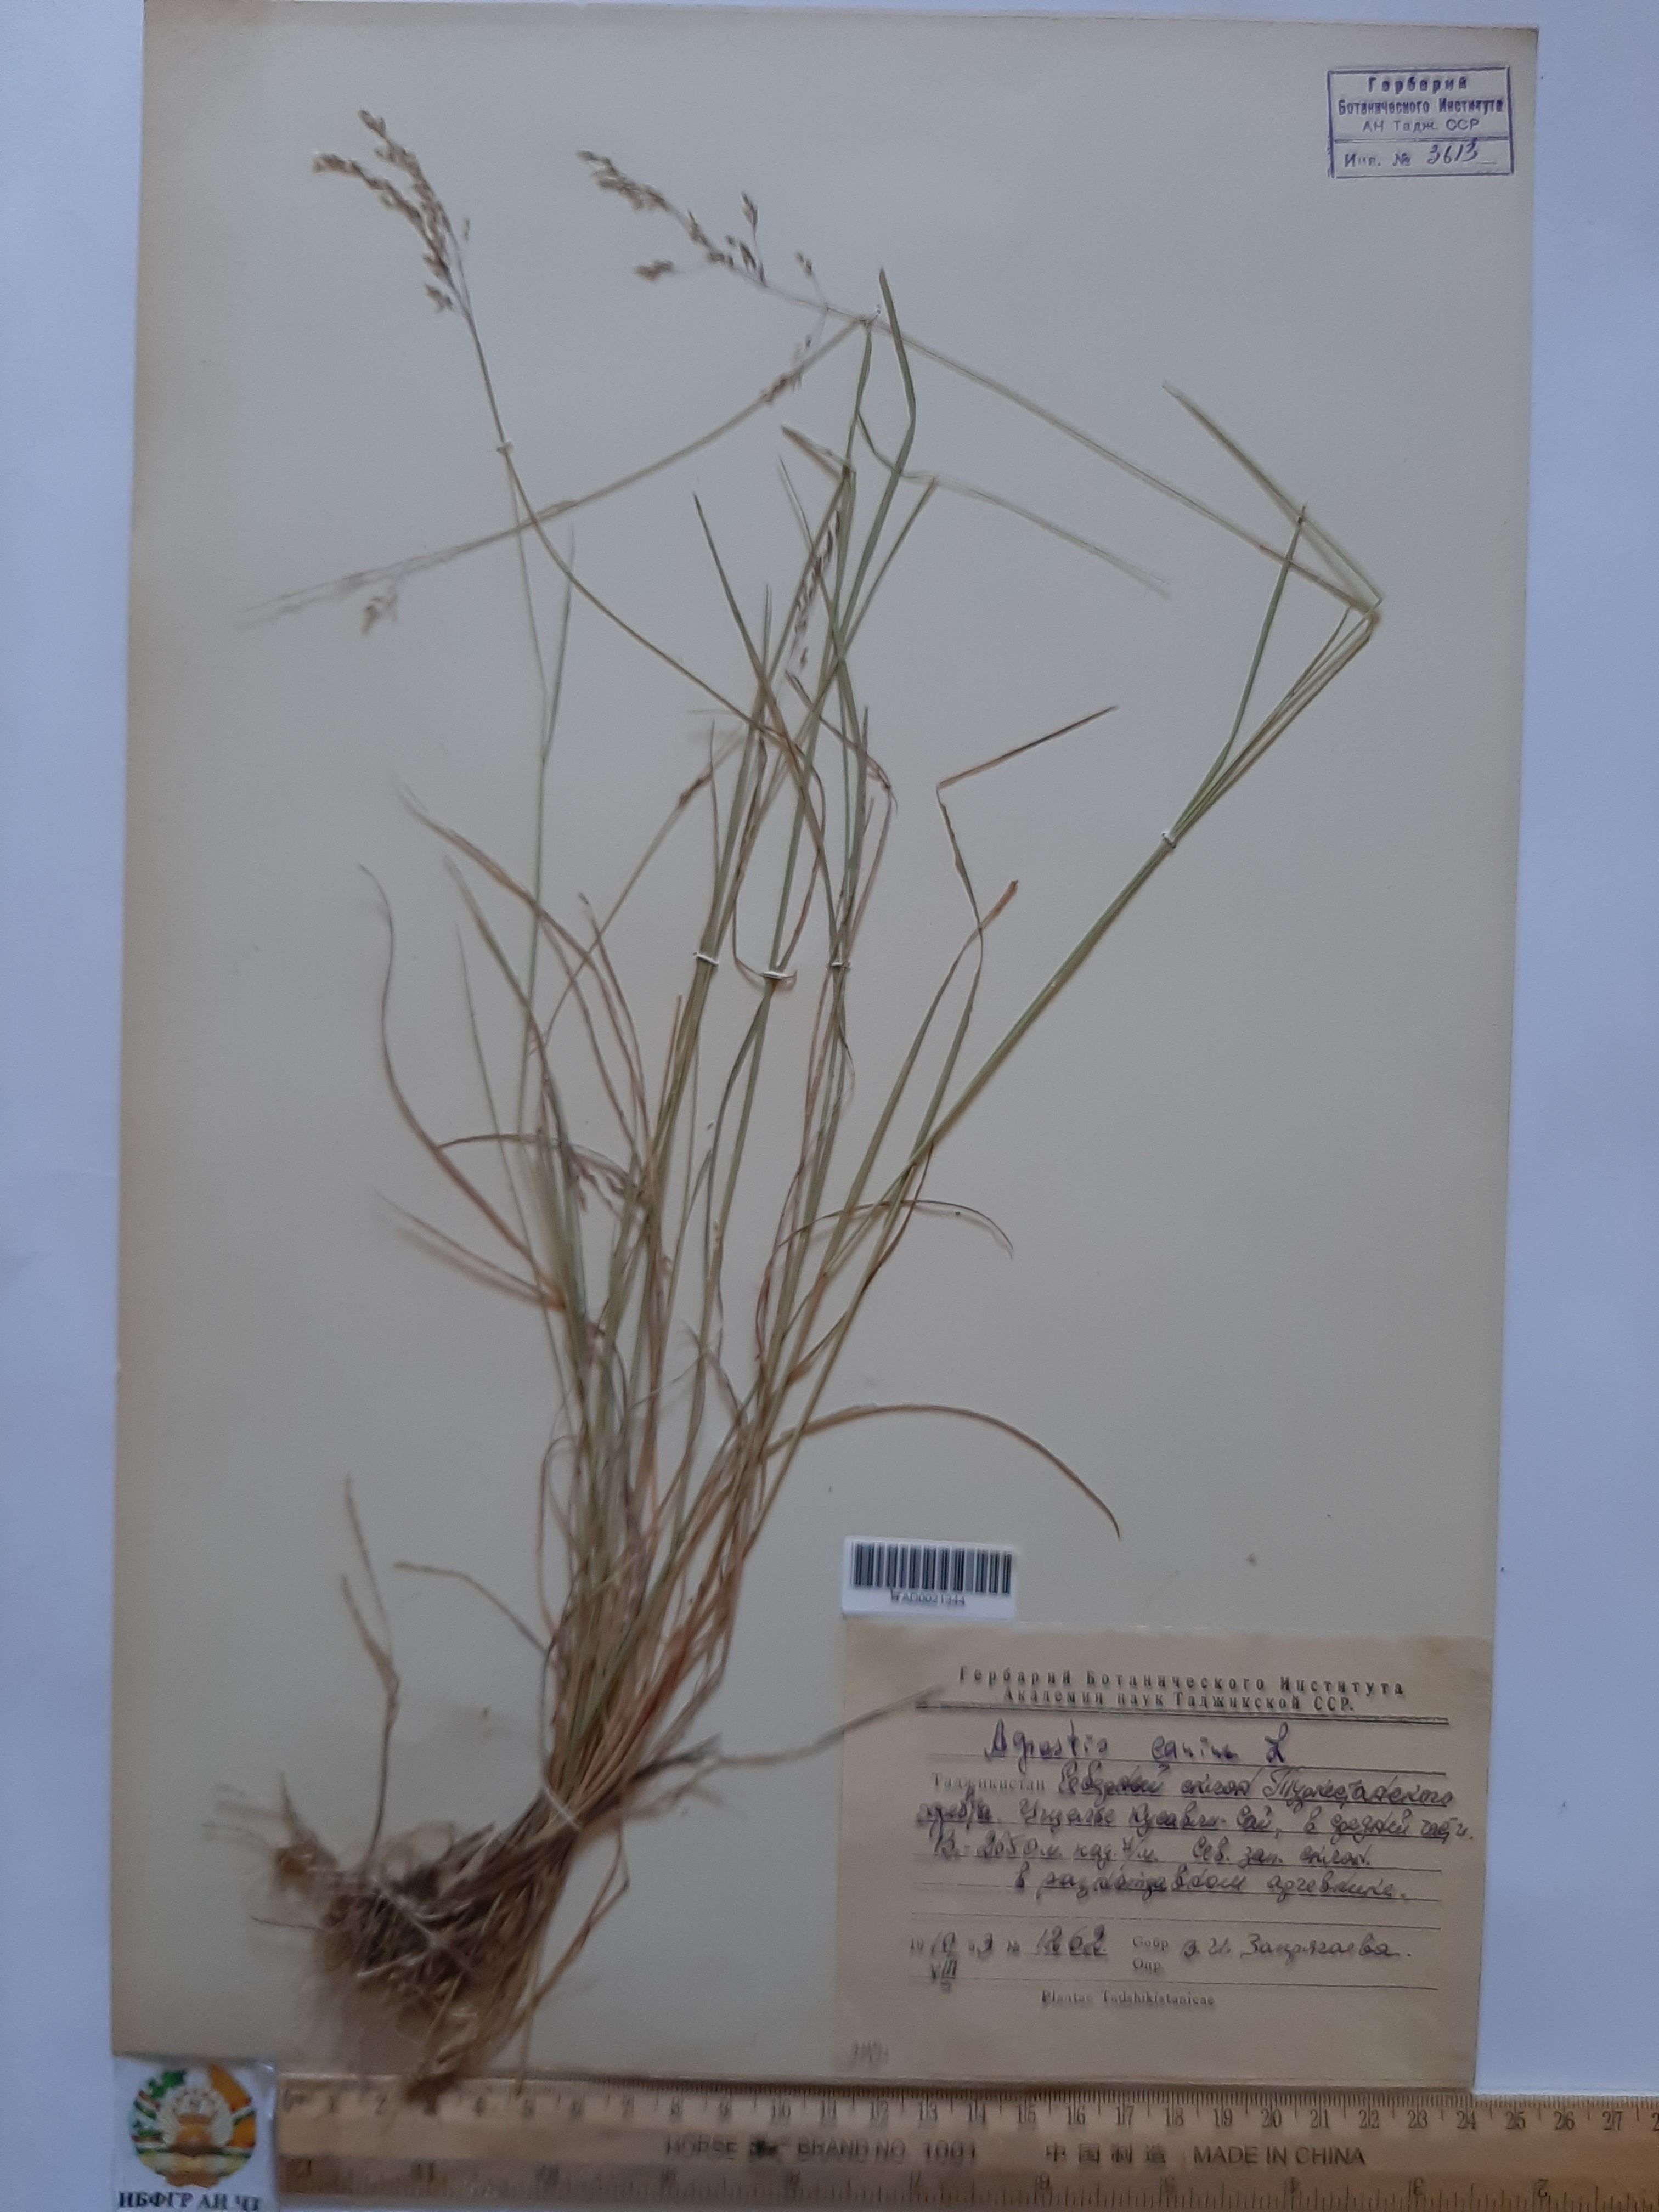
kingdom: Plantae
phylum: Tracheophyta
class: Liliopsida
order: Poales
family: Poaceae
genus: Agrostis
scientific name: Agrostis canina
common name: Velvet bent
